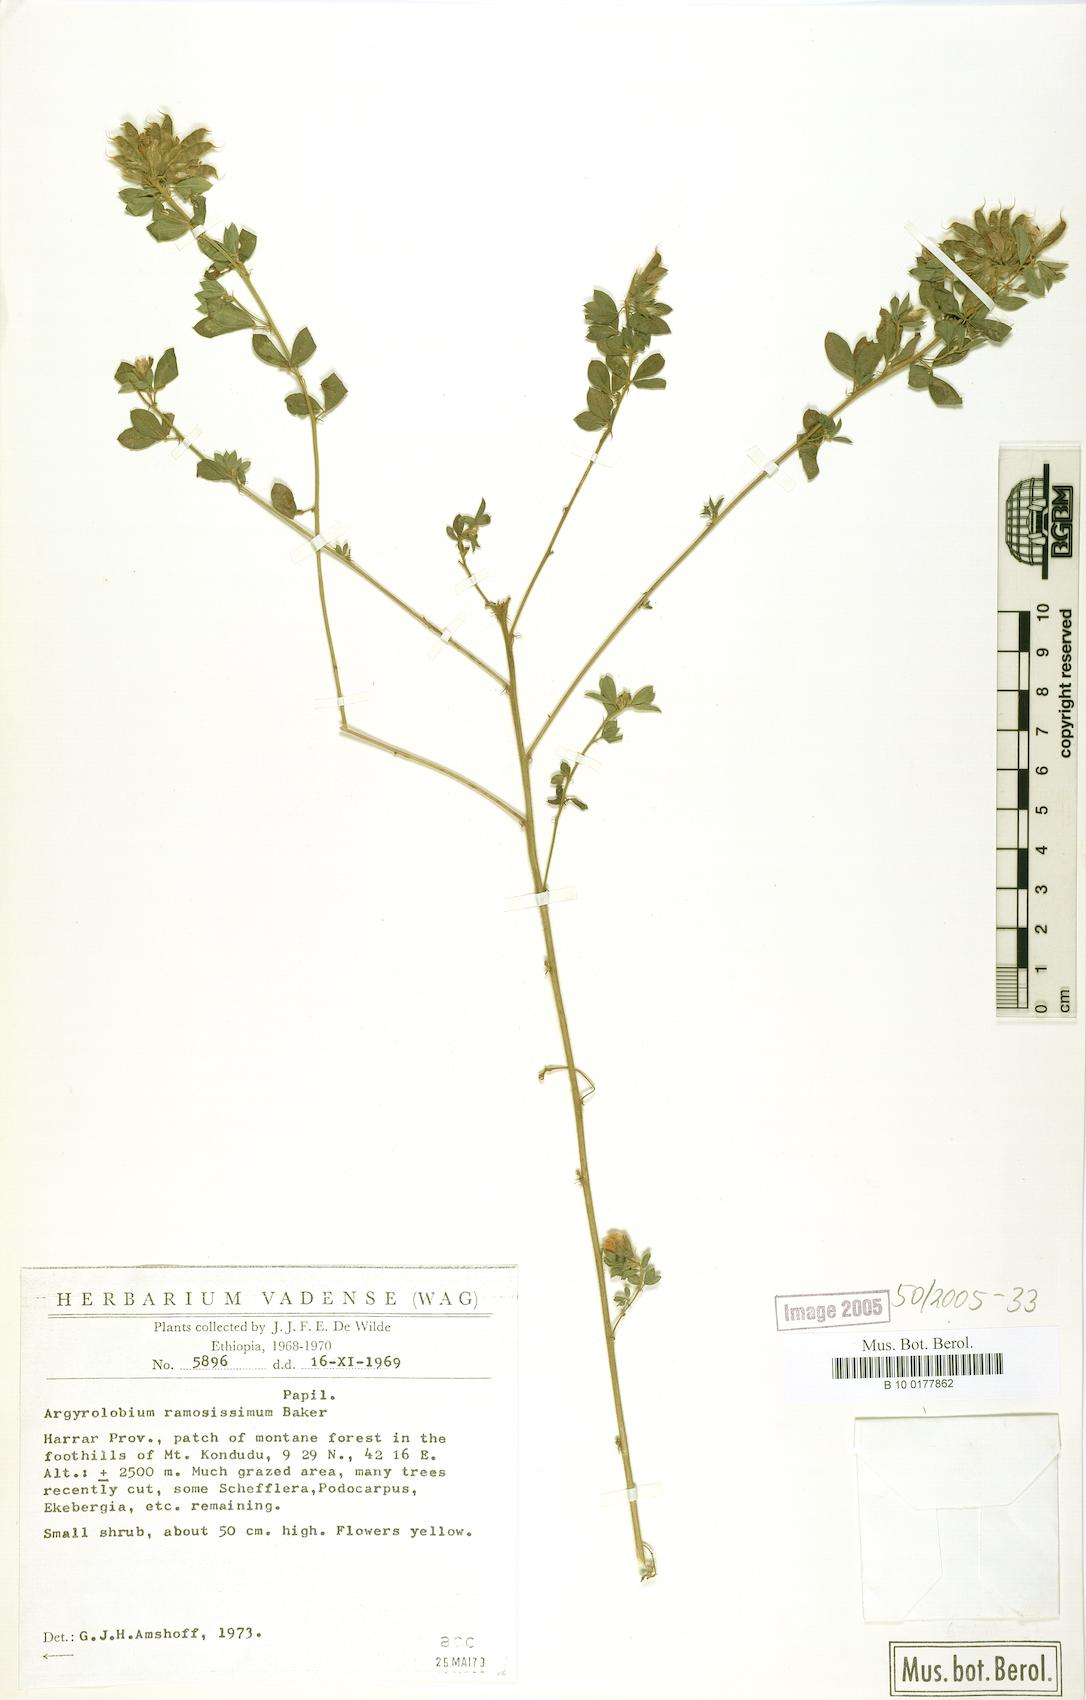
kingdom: Plantae
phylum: Tracheophyta
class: Magnoliopsida
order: Fabales
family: Fabaceae
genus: Argyrolobium
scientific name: Argyrolobium ramosissimum
